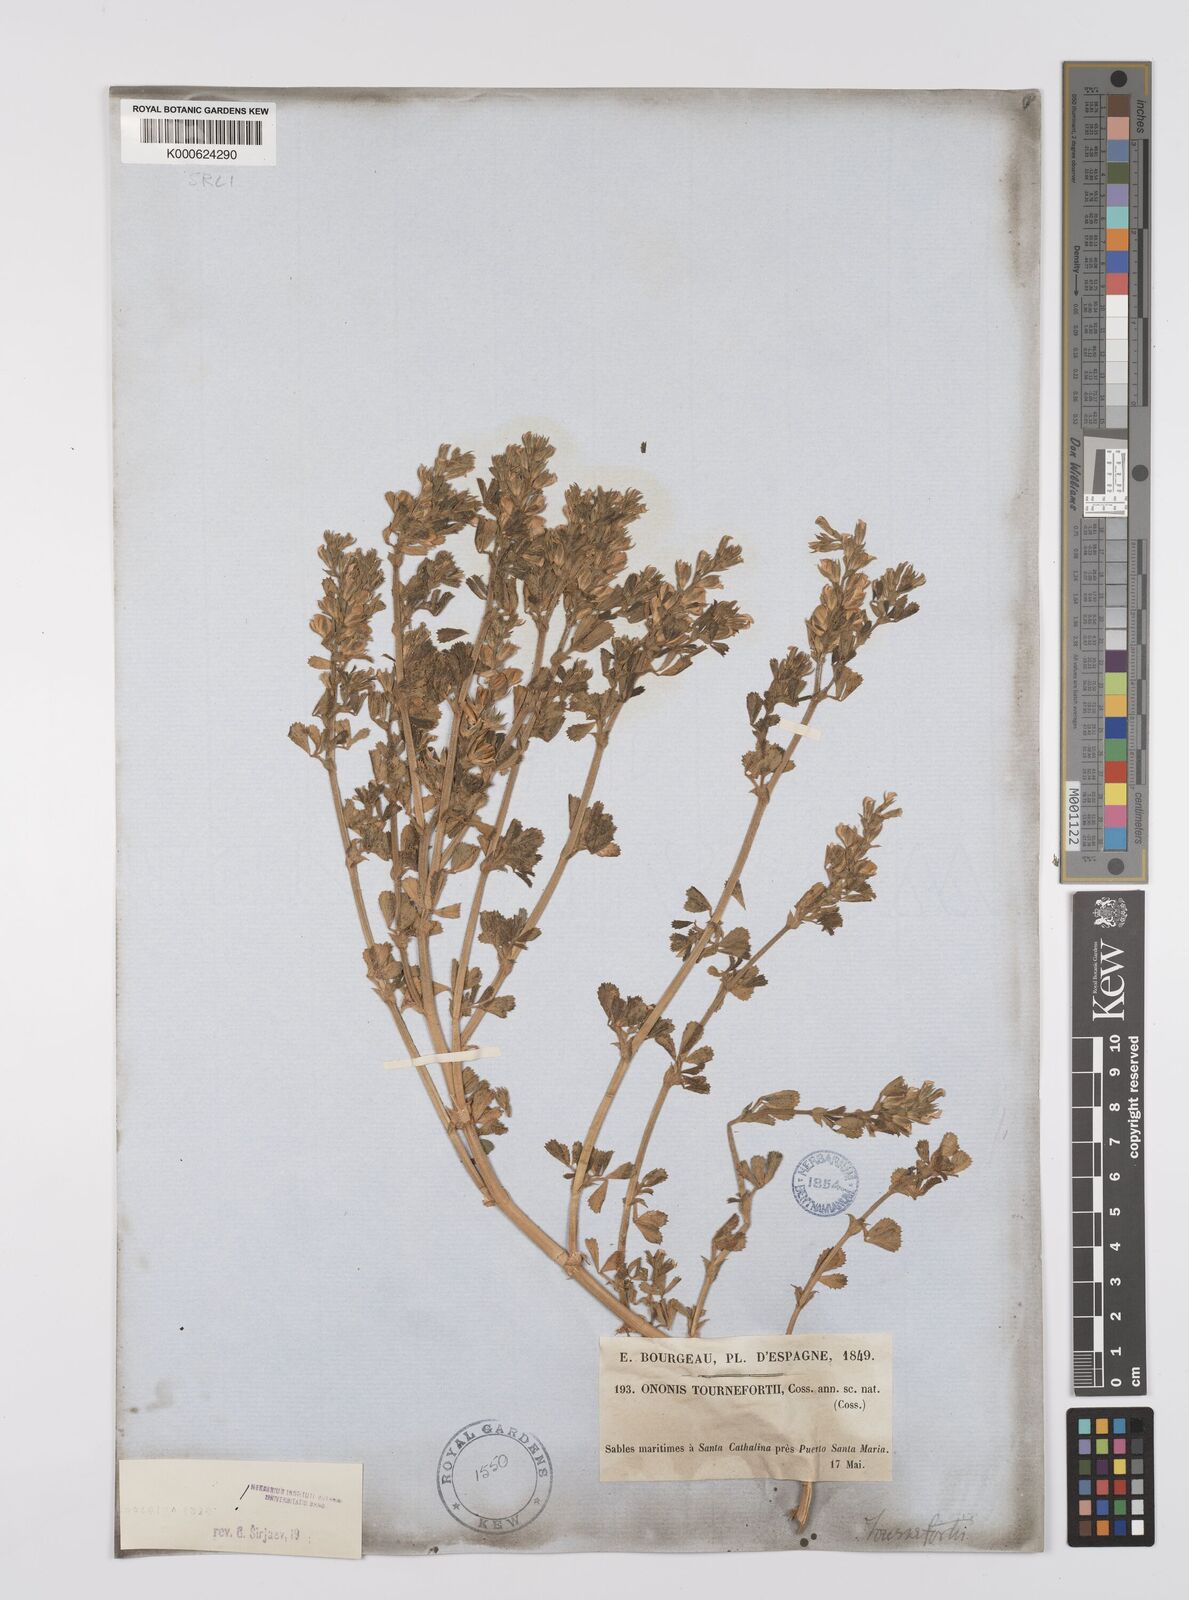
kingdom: Plantae
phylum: Tracheophyta
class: Magnoliopsida
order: Fabales
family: Fabaceae
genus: Ononis
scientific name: Ononis tournefortii
